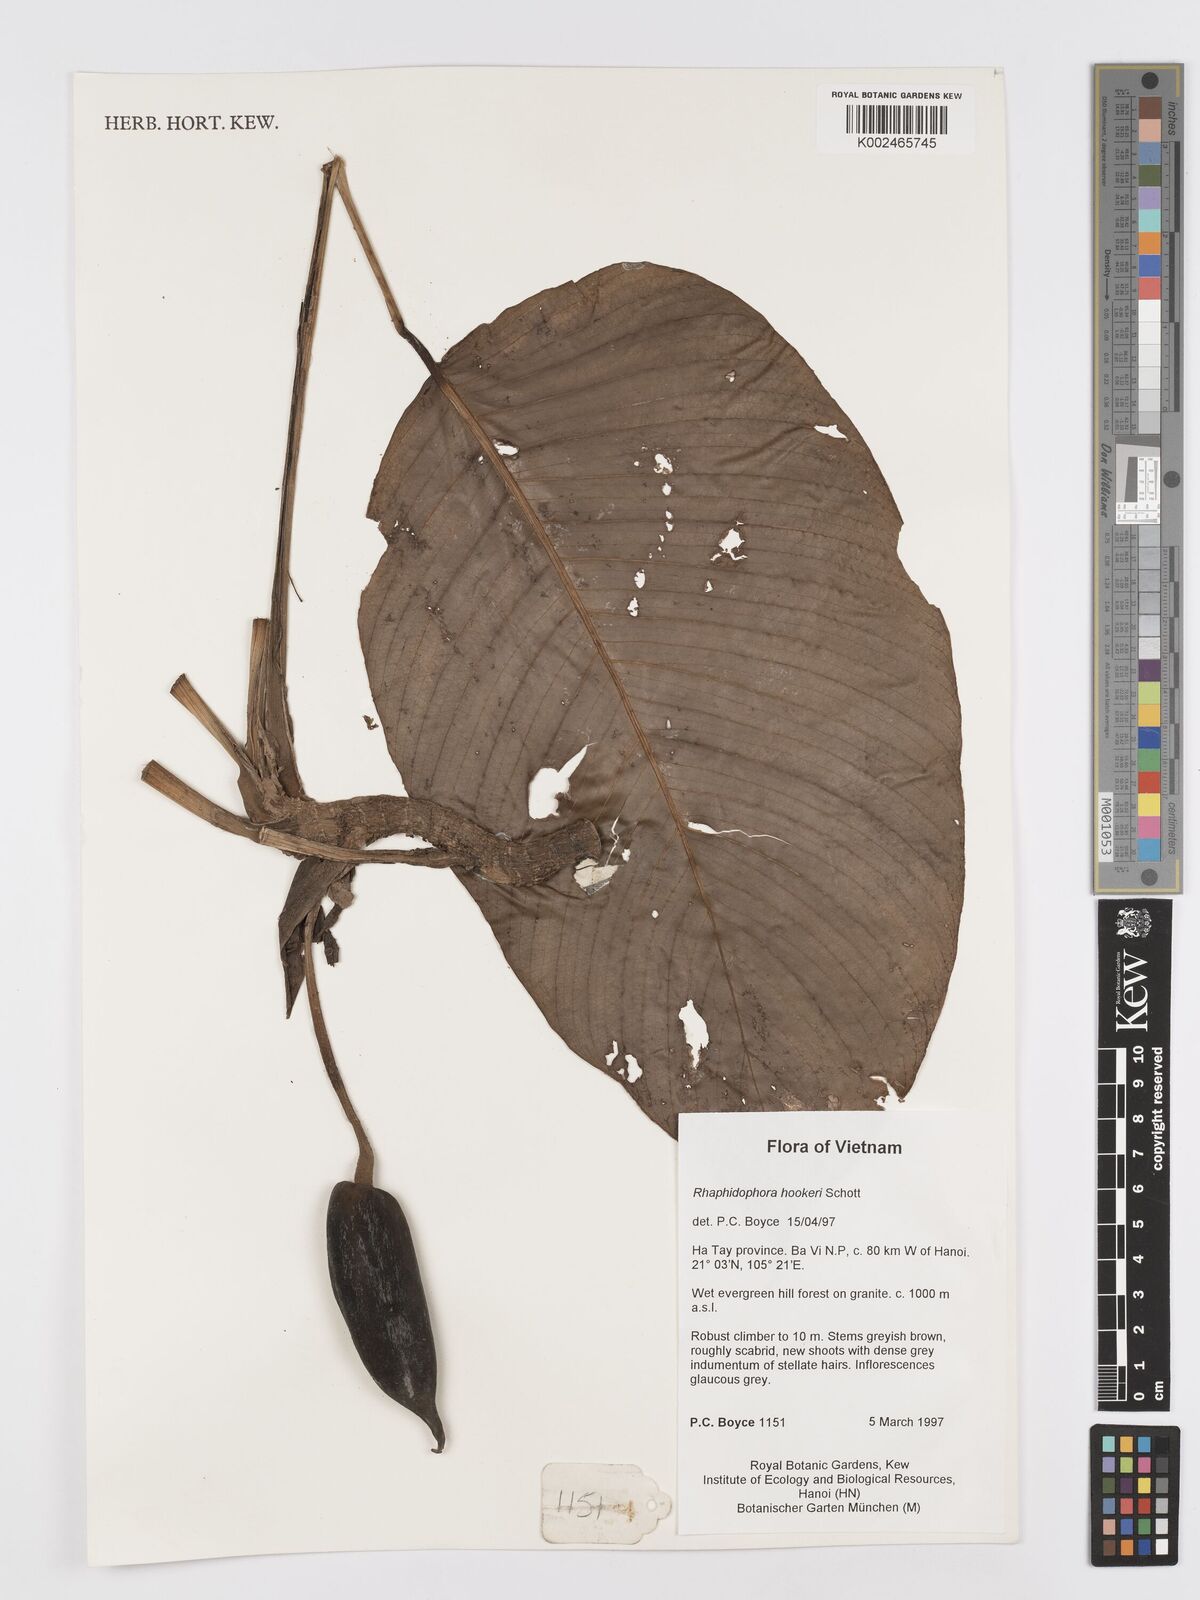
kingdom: Plantae
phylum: Tracheophyta
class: Liliopsida
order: Alismatales
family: Araceae
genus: Rhaphidophora
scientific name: Rhaphidophora
